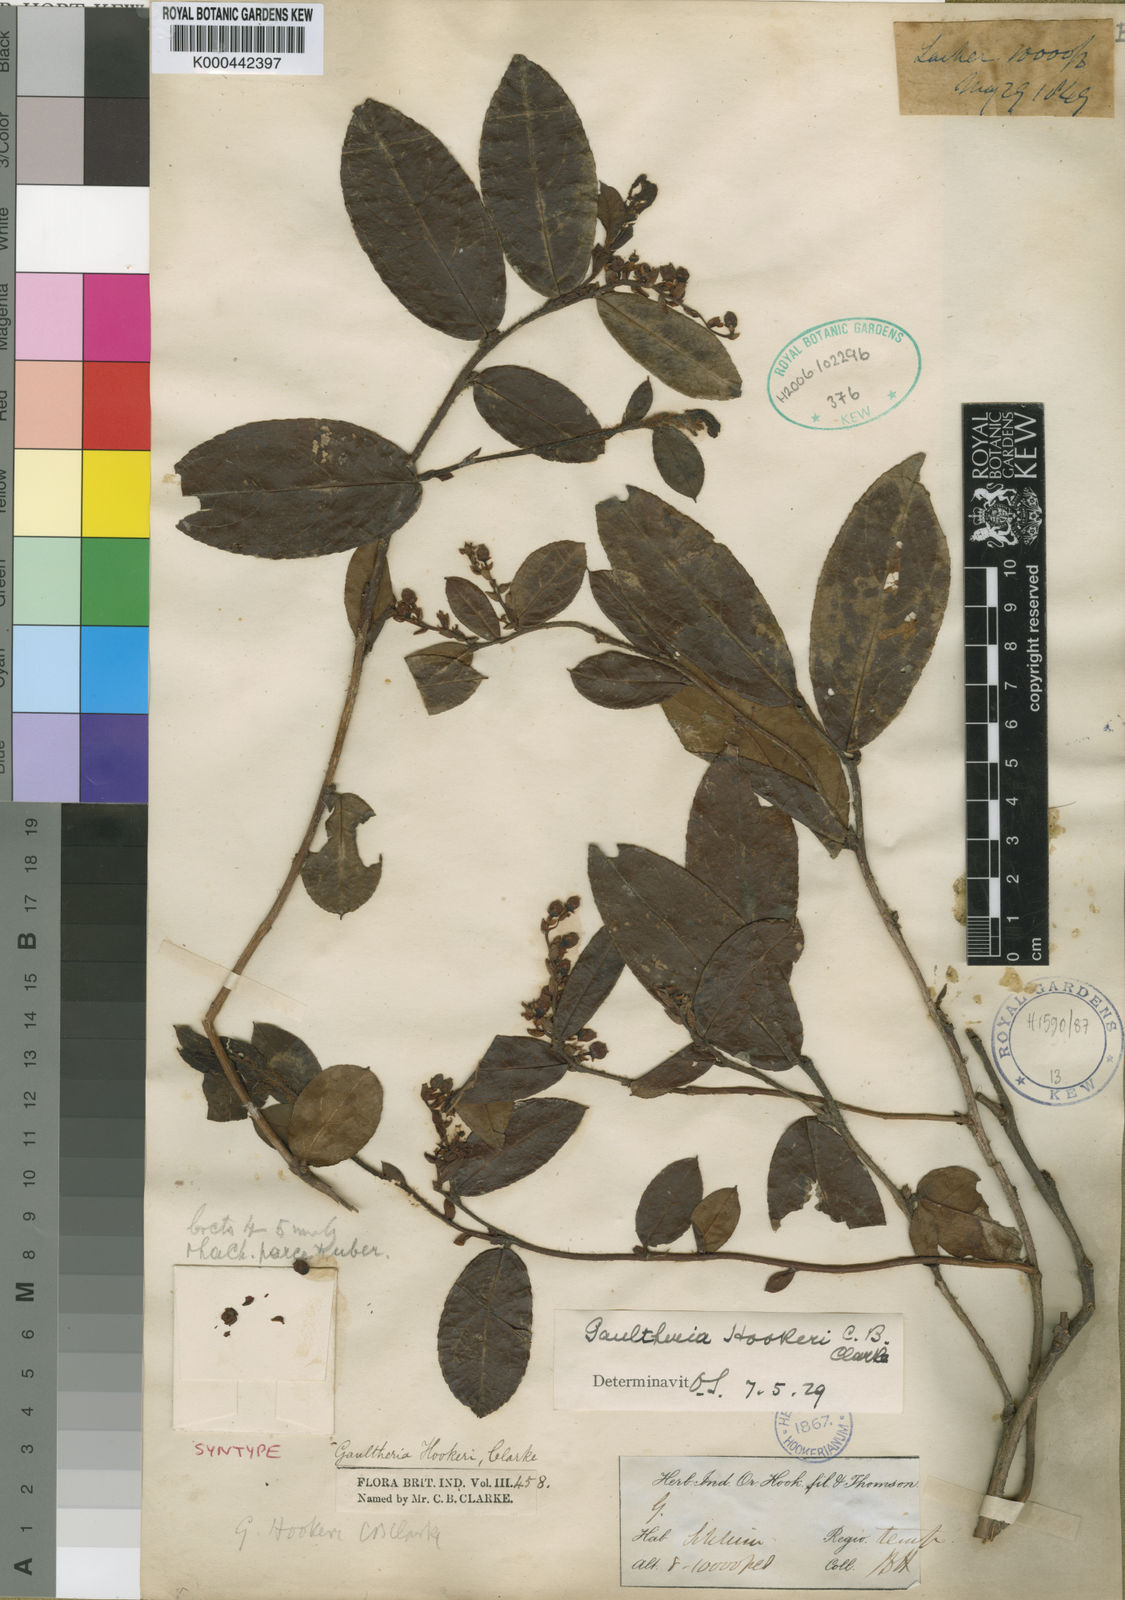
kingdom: Plantae
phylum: Tracheophyta
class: Magnoliopsida
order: Ericales
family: Ericaceae
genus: Gaultheria
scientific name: Gaultheria hookeri
